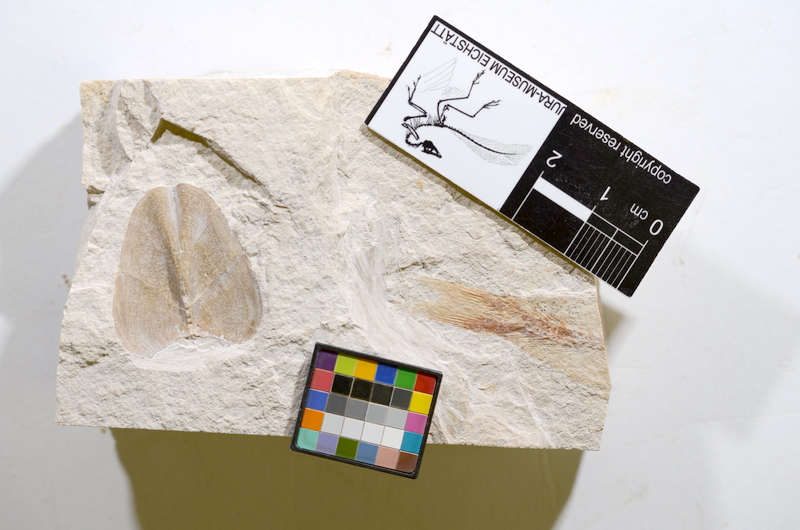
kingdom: Animalia
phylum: Chordata
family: Ascalaboidae
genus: Tharsis
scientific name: Tharsis dubius
